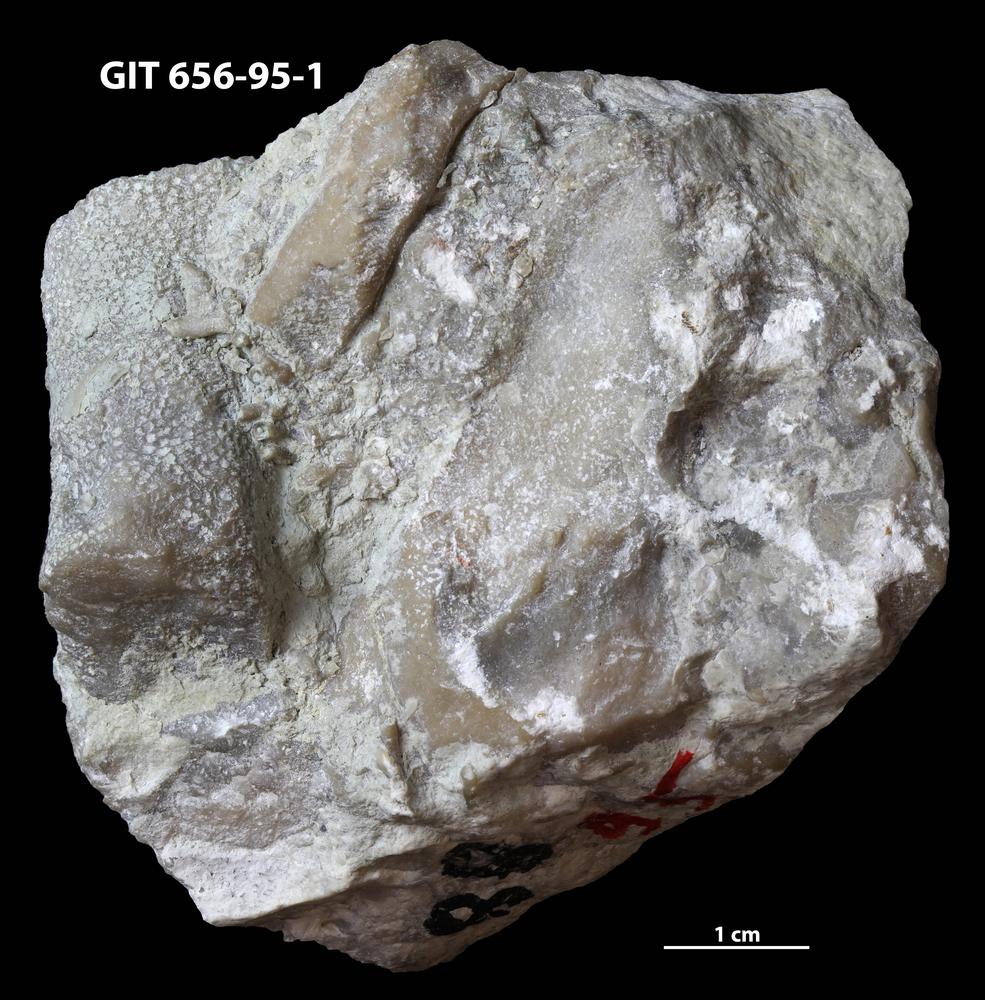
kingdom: Animalia
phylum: Porifera
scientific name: Porifera
